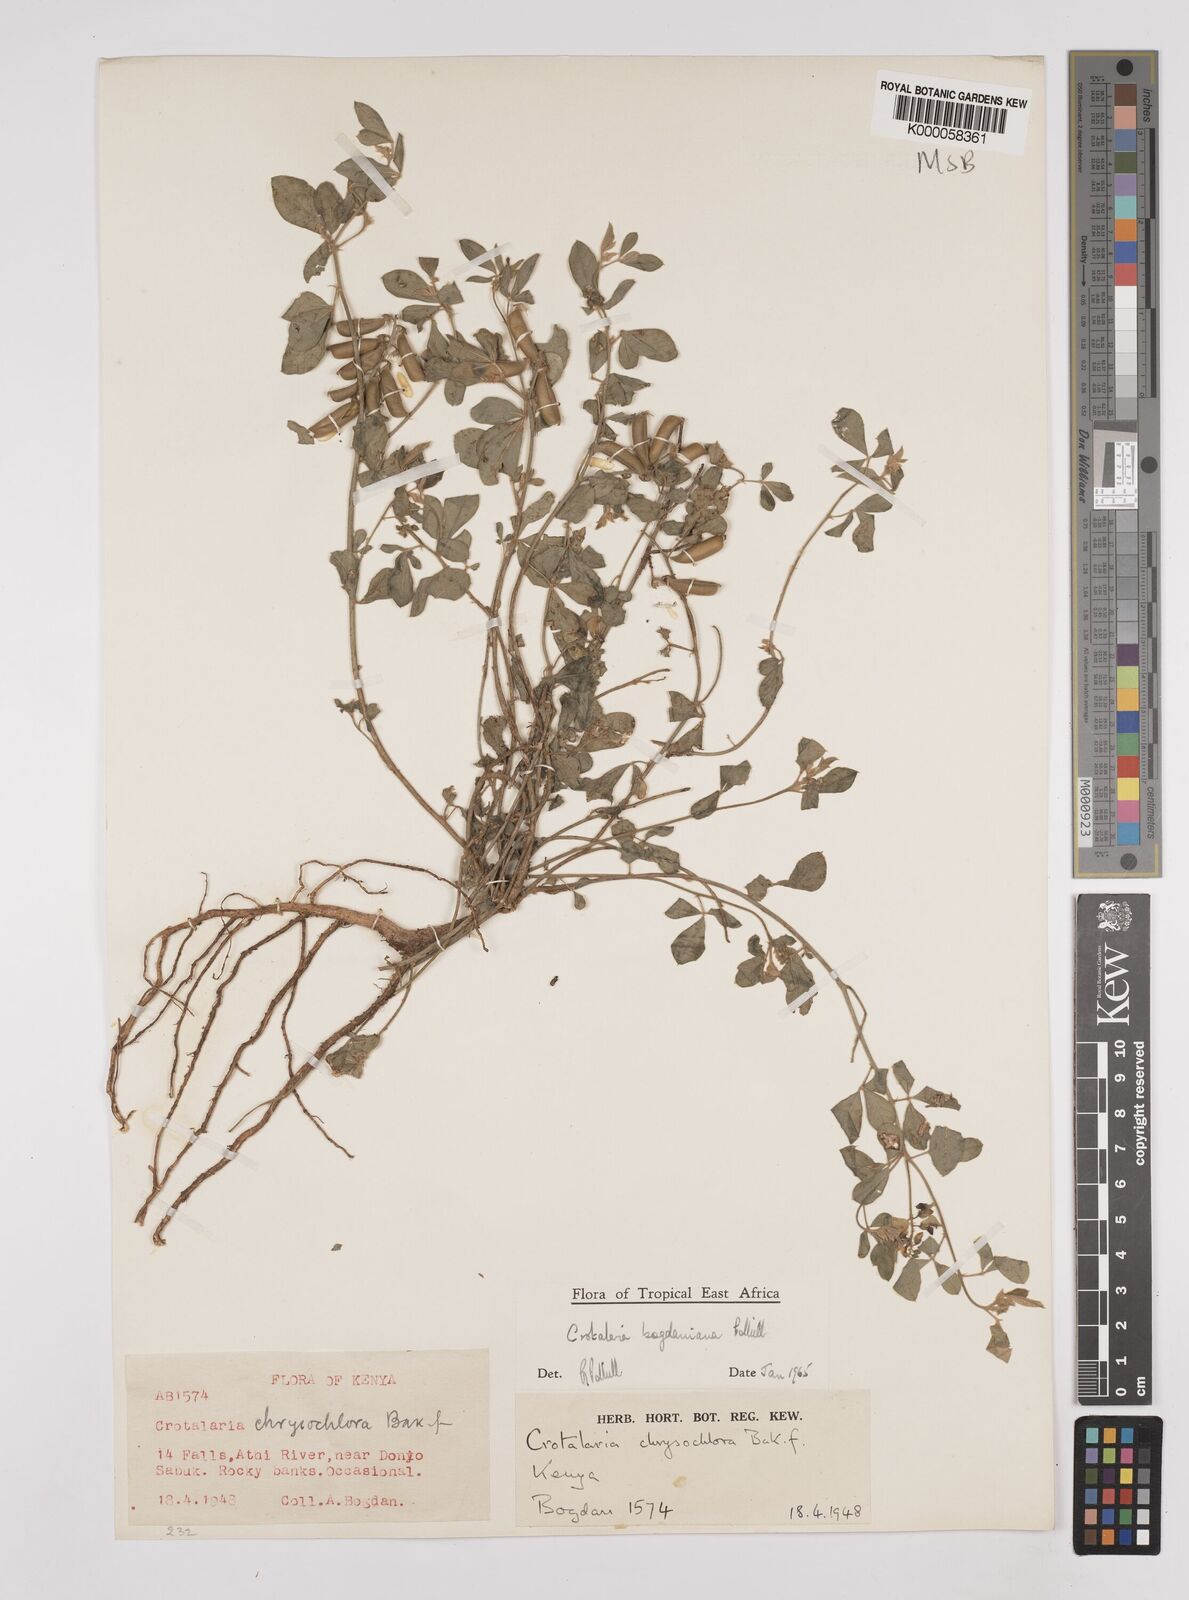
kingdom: Plantae
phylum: Tracheophyta
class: Magnoliopsida
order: Fabales
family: Fabaceae
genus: Crotalaria
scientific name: Crotalaria bogdaniana
